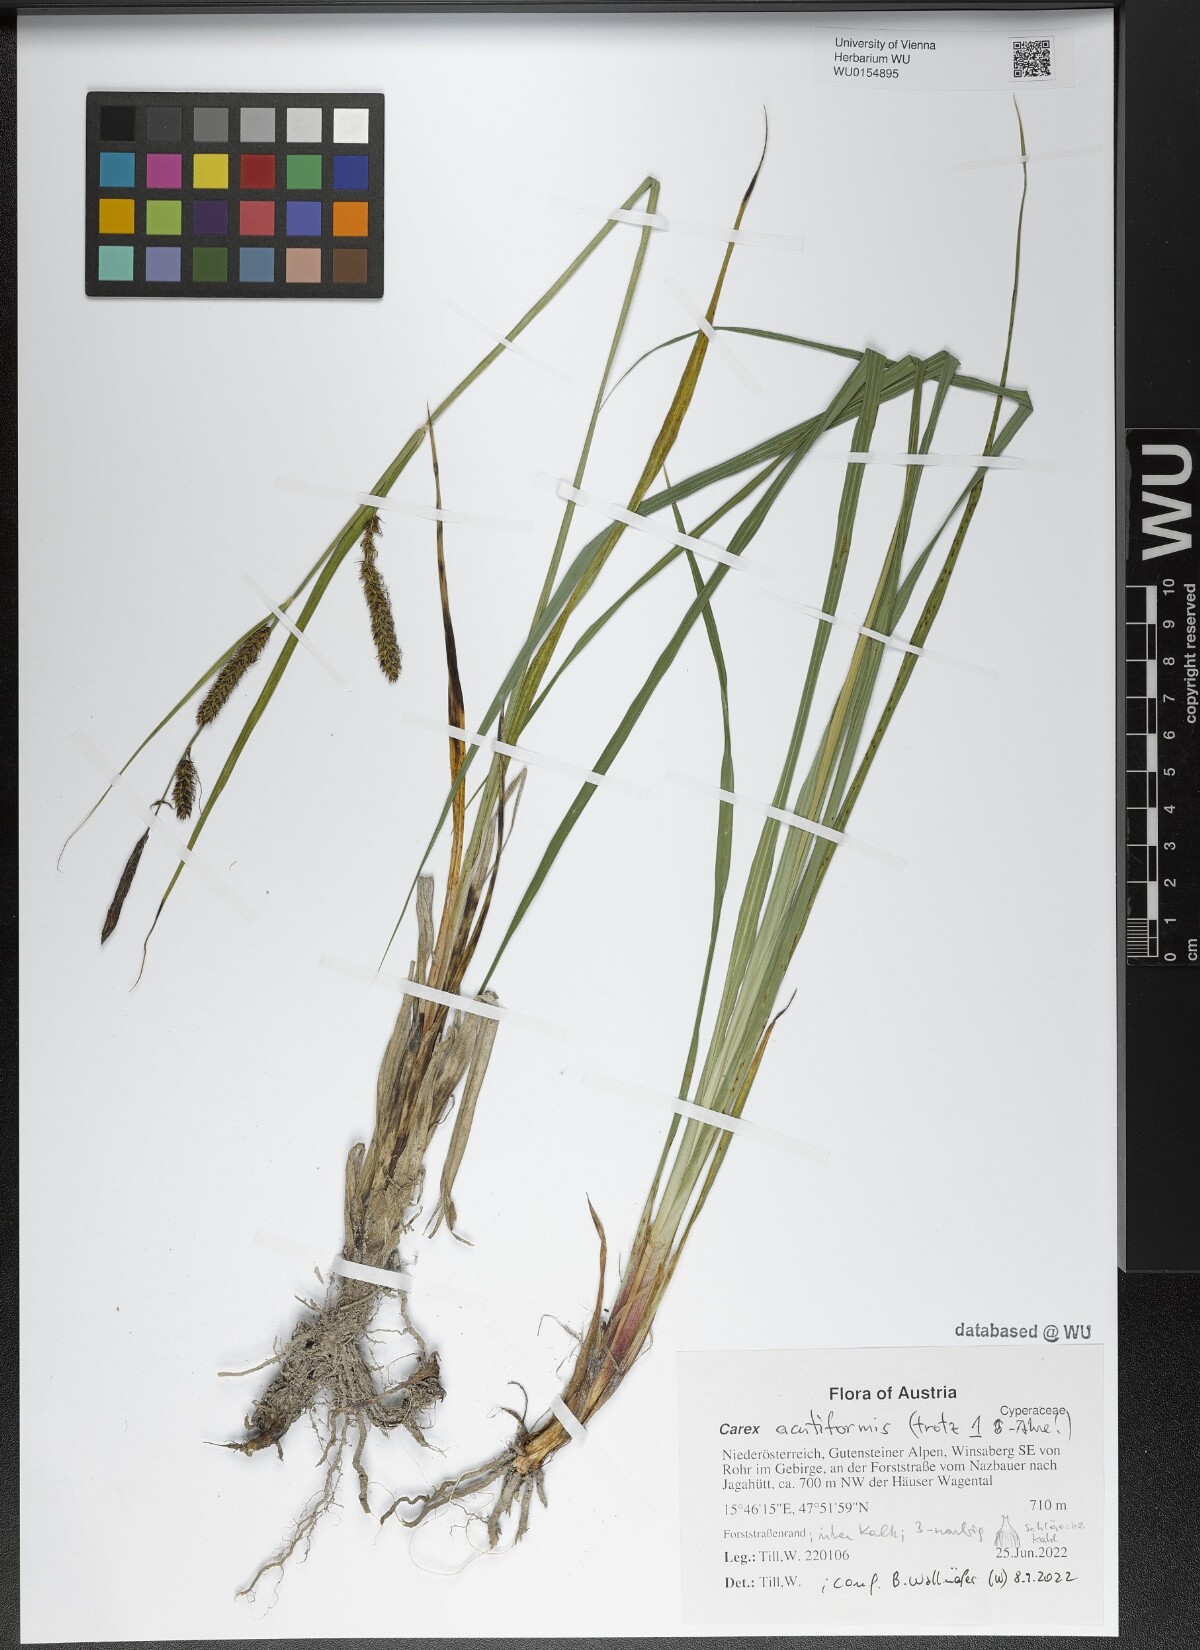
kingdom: Plantae
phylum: Tracheophyta
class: Liliopsida
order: Poales
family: Cyperaceae
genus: Carex
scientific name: Carex acutiformis
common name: Lesser pond-sedge
